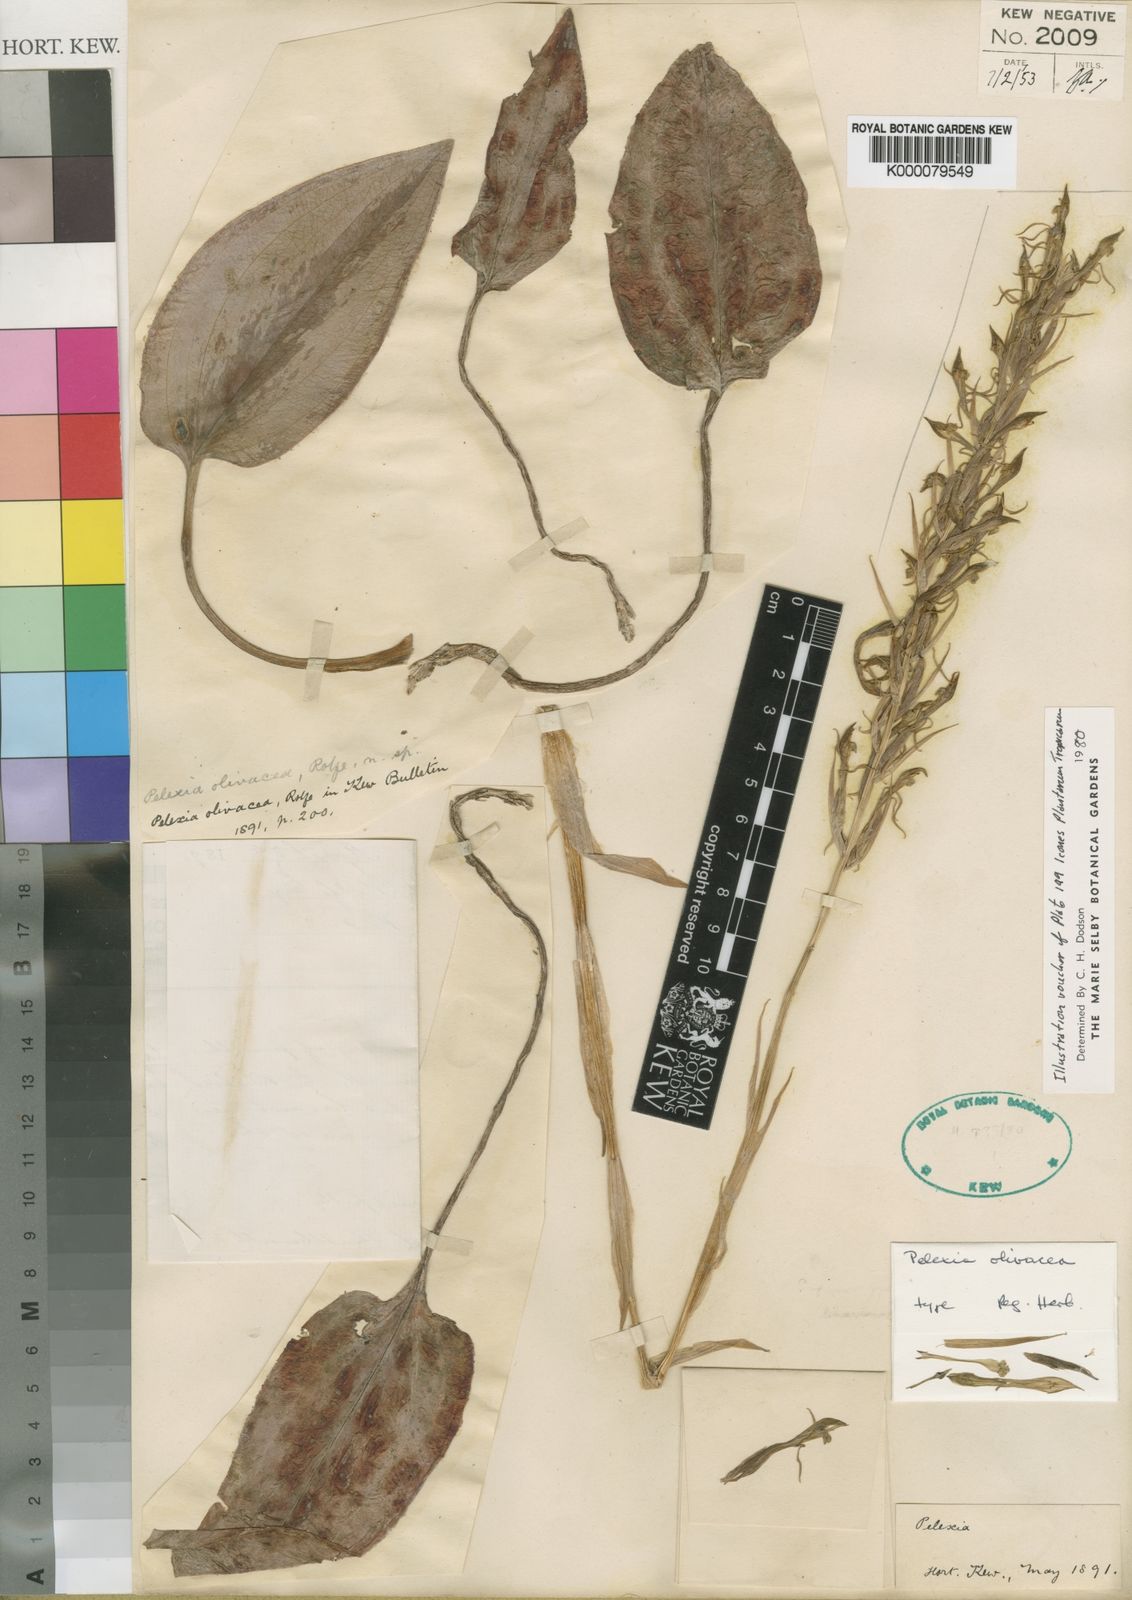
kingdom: Plantae
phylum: Tracheophyta
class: Liliopsida
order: Asparagales
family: Orchidaceae
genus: Pelexia
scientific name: Pelexia olivacea
